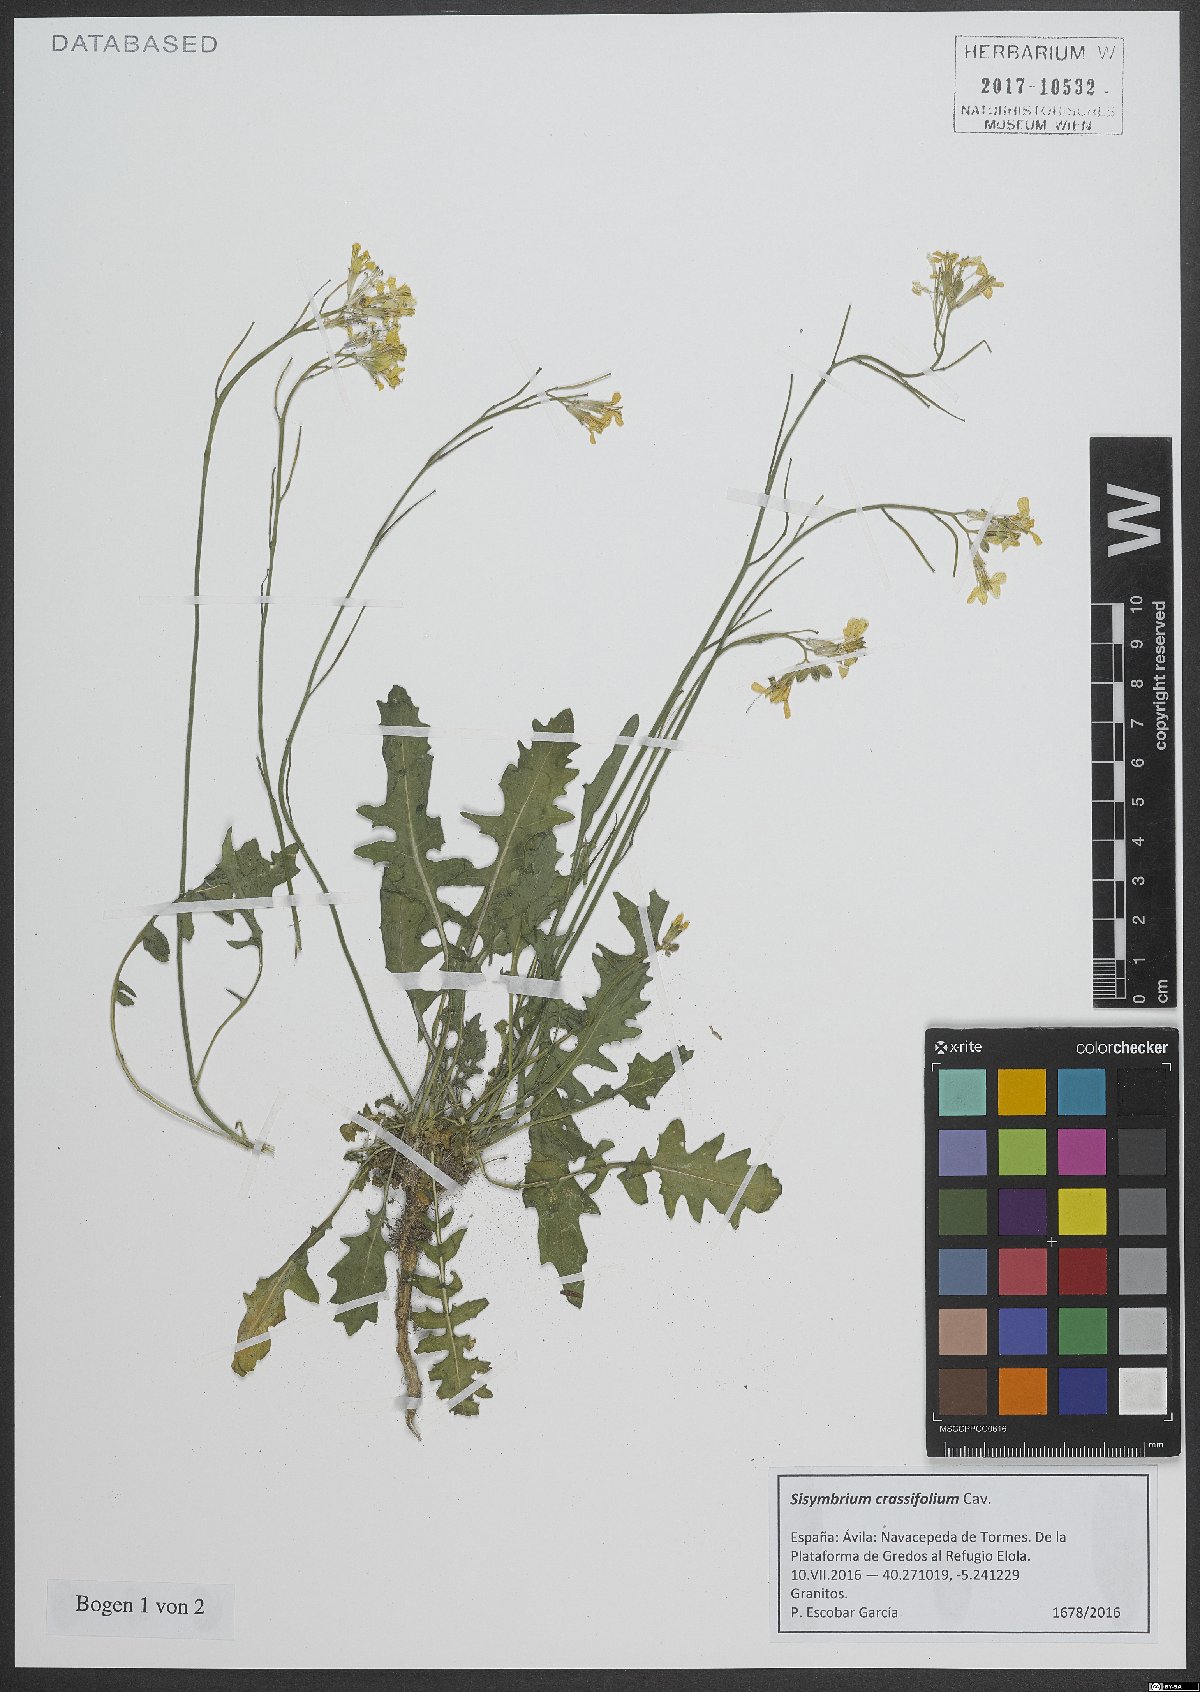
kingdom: Plantae
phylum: Tracheophyta
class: Magnoliopsida
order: Brassicales
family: Brassicaceae
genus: Sisymbrium
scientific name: Sisymbrium crassifolium
